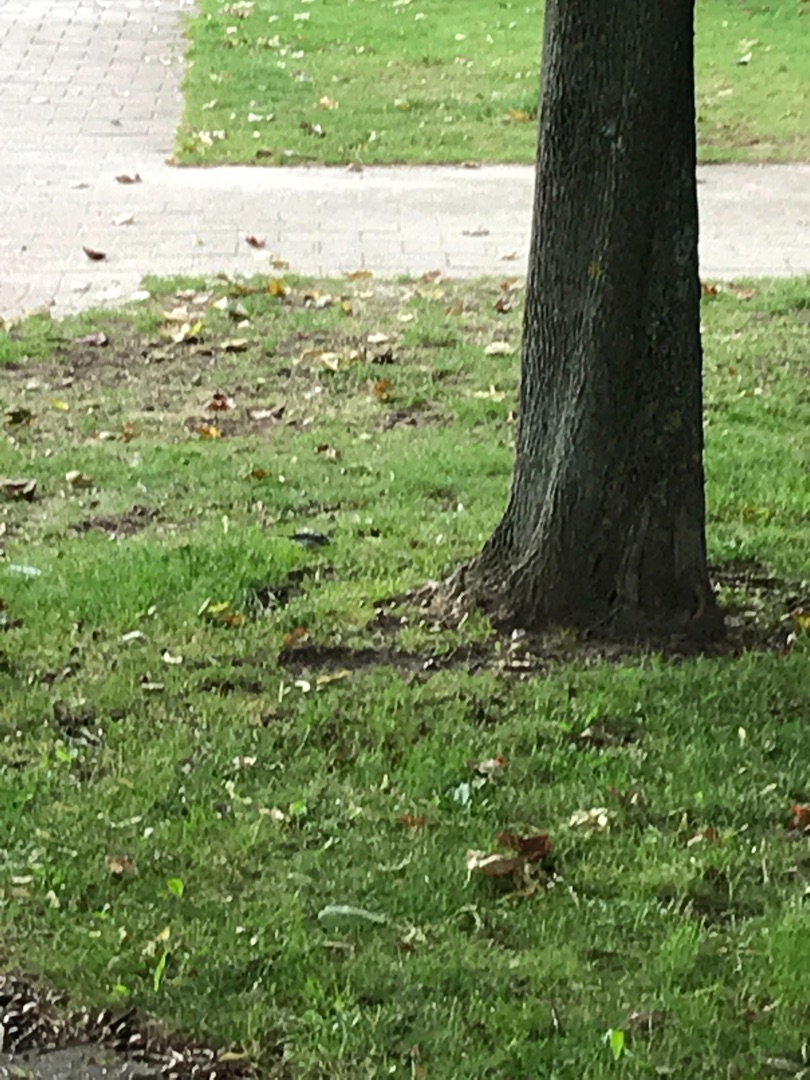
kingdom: Animalia
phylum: Chordata
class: Aves
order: Passeriformes
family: Motacillidae
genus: Motacilla
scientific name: Motacilla alba
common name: Hvid vipstjert
